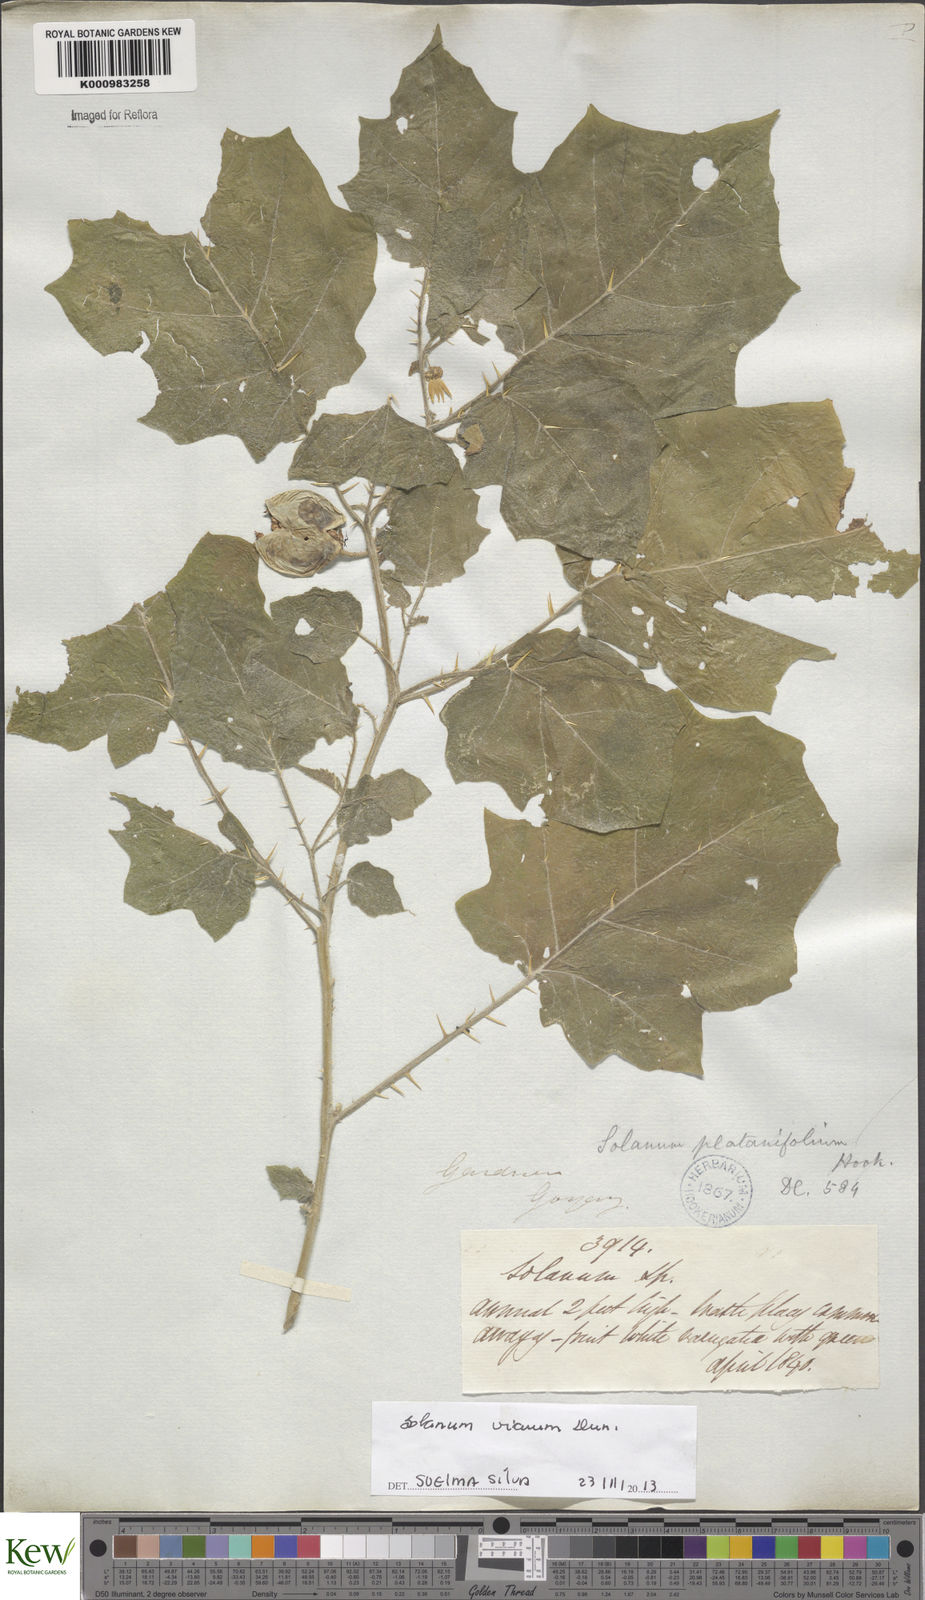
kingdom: Plantae
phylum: Tracheophyta
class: Magnoliopsida
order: Solanales
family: Solanaceae
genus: Solanum
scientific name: Solanum viarum
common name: Tropical soda apple
